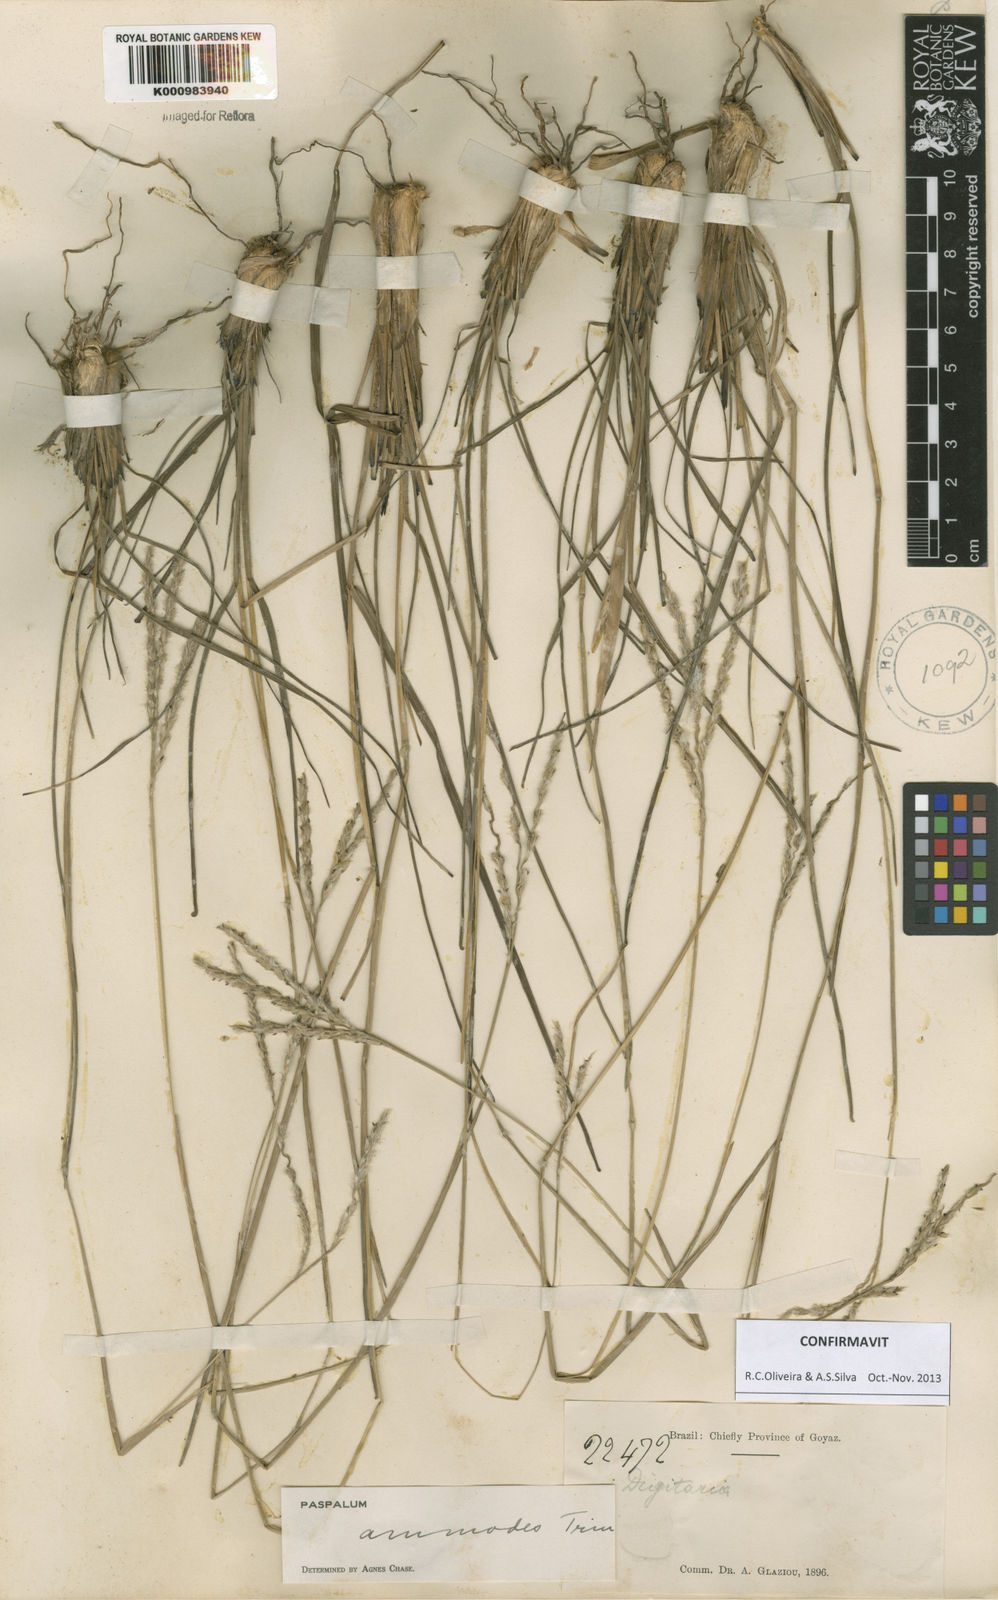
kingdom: Plantae
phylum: Tracheophyta
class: Liliopsida
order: Poales
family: Poaceae
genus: Paspalum
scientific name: Paspalum ammodes
